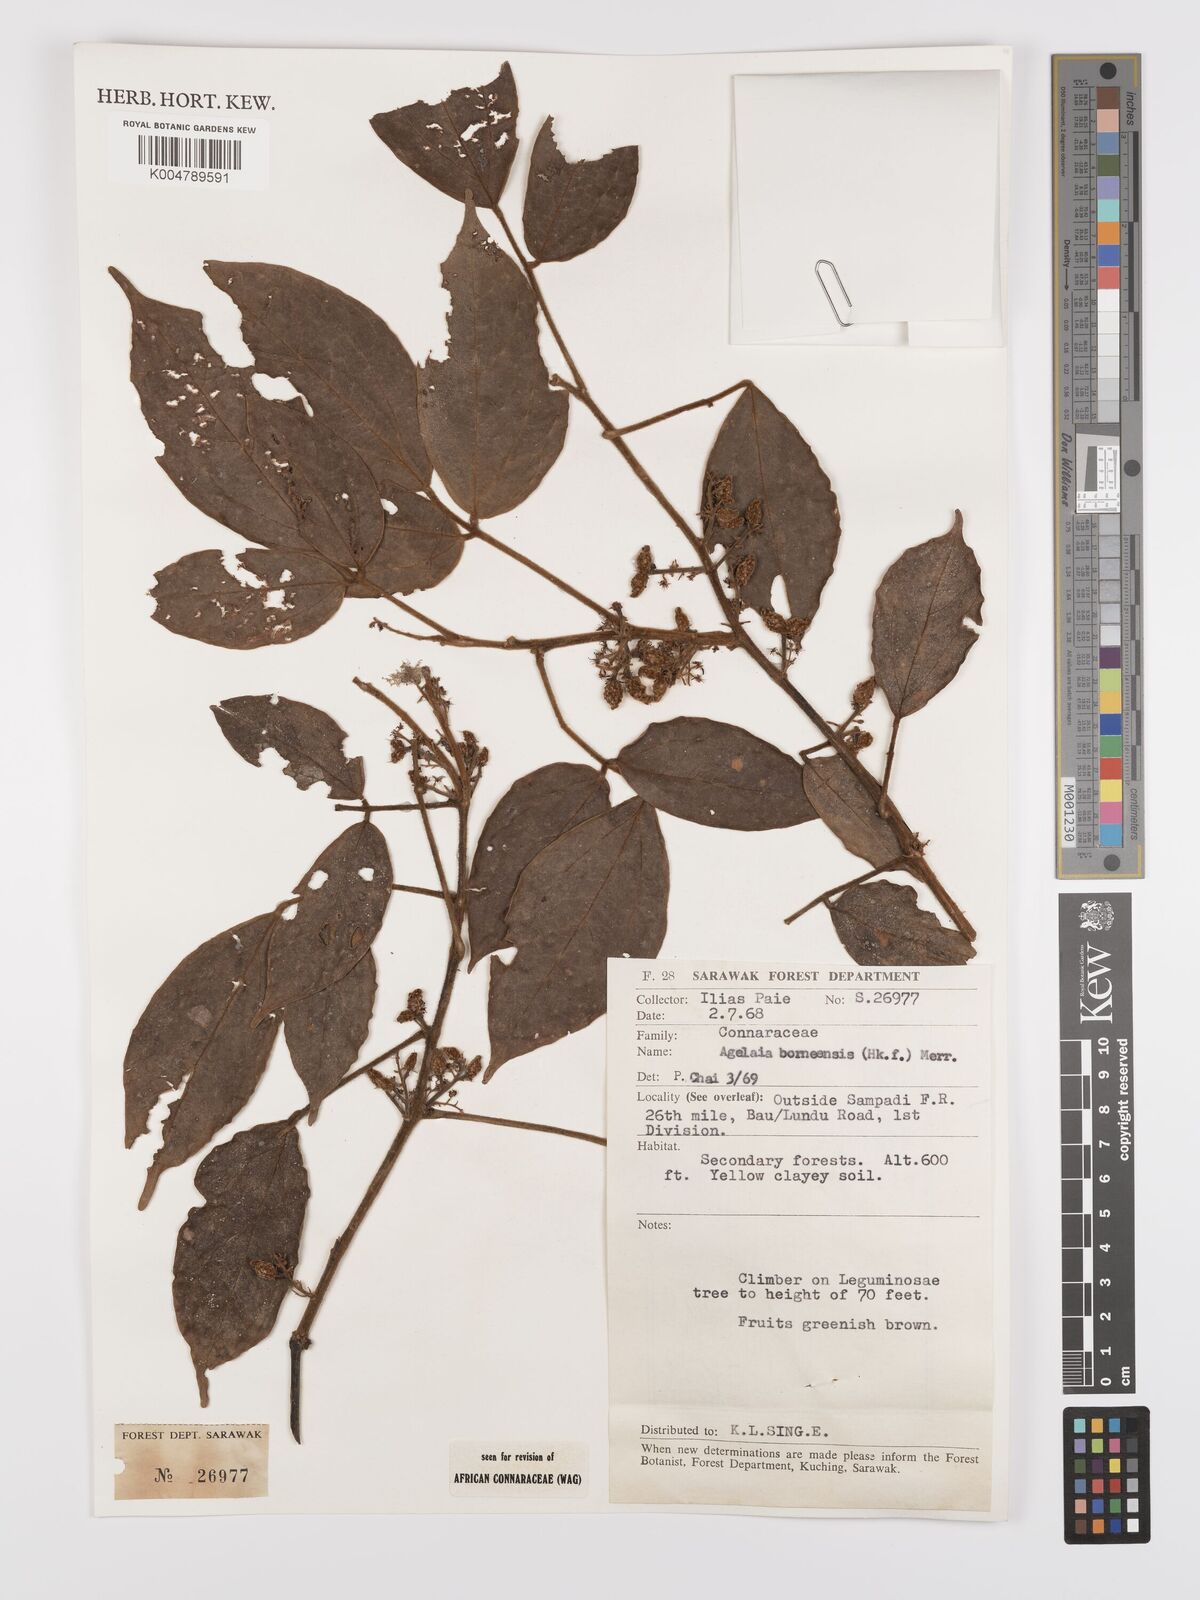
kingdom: Plantae
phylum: Tracheophyta
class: Magnoliopsida
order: Oxalidales
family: Connaraceae
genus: Agelaea
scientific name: Agelaea borneensis
